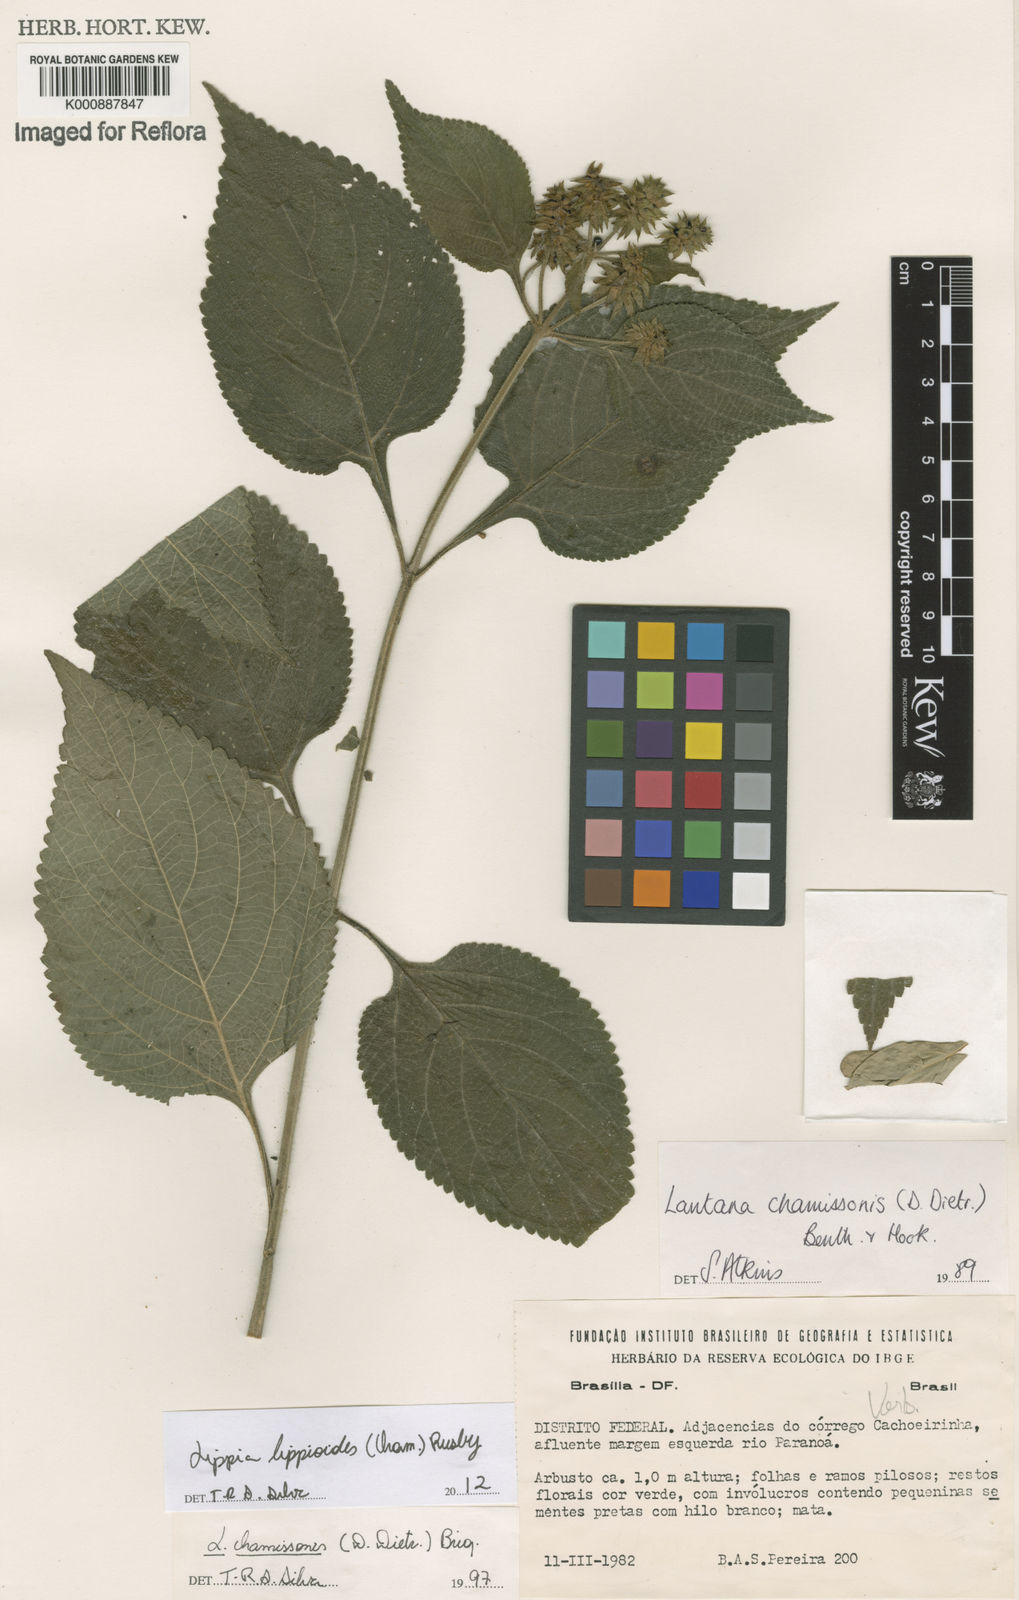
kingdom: Plantae
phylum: Tracheophyta
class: Magnoliopsida
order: Lamiales
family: Verbenaceae
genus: Lippia
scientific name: Lippia lippioides
